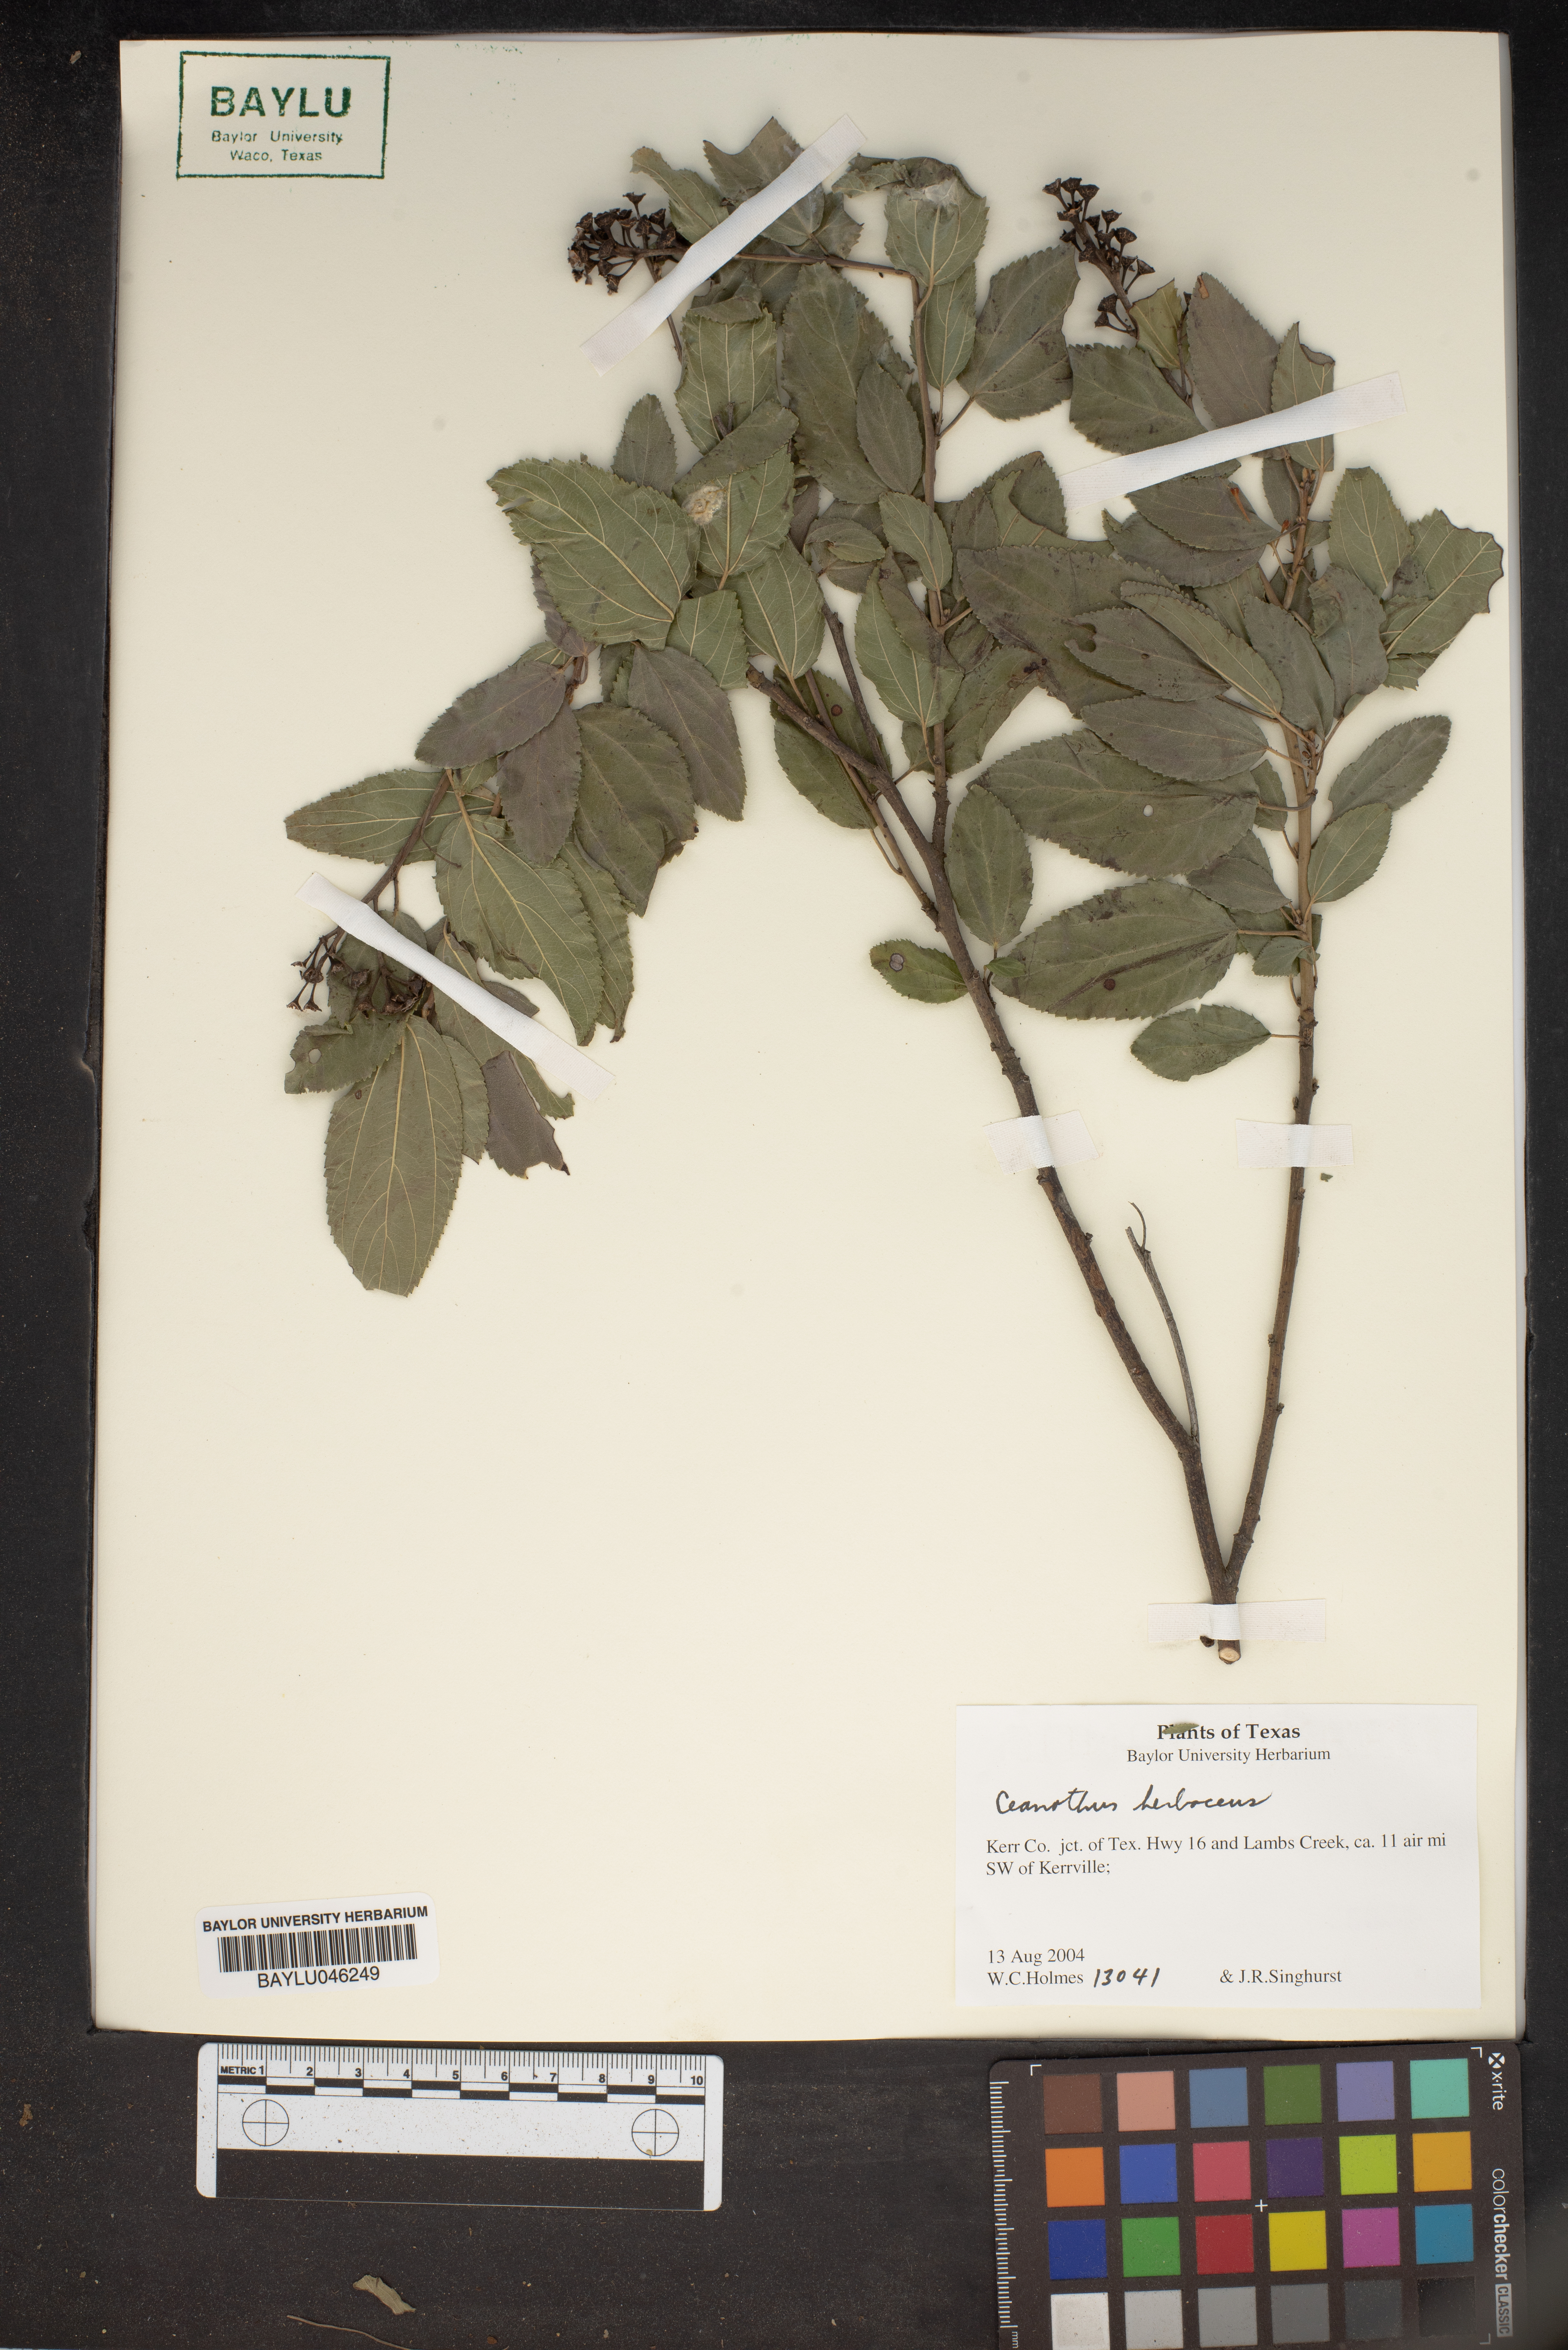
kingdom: Plantae
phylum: Tracheophyta
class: Magnoliopsida
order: Rosales
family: Rhamnaceae
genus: Ceanothus
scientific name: Ceanothus herbaceus
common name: Inland ceanothus
